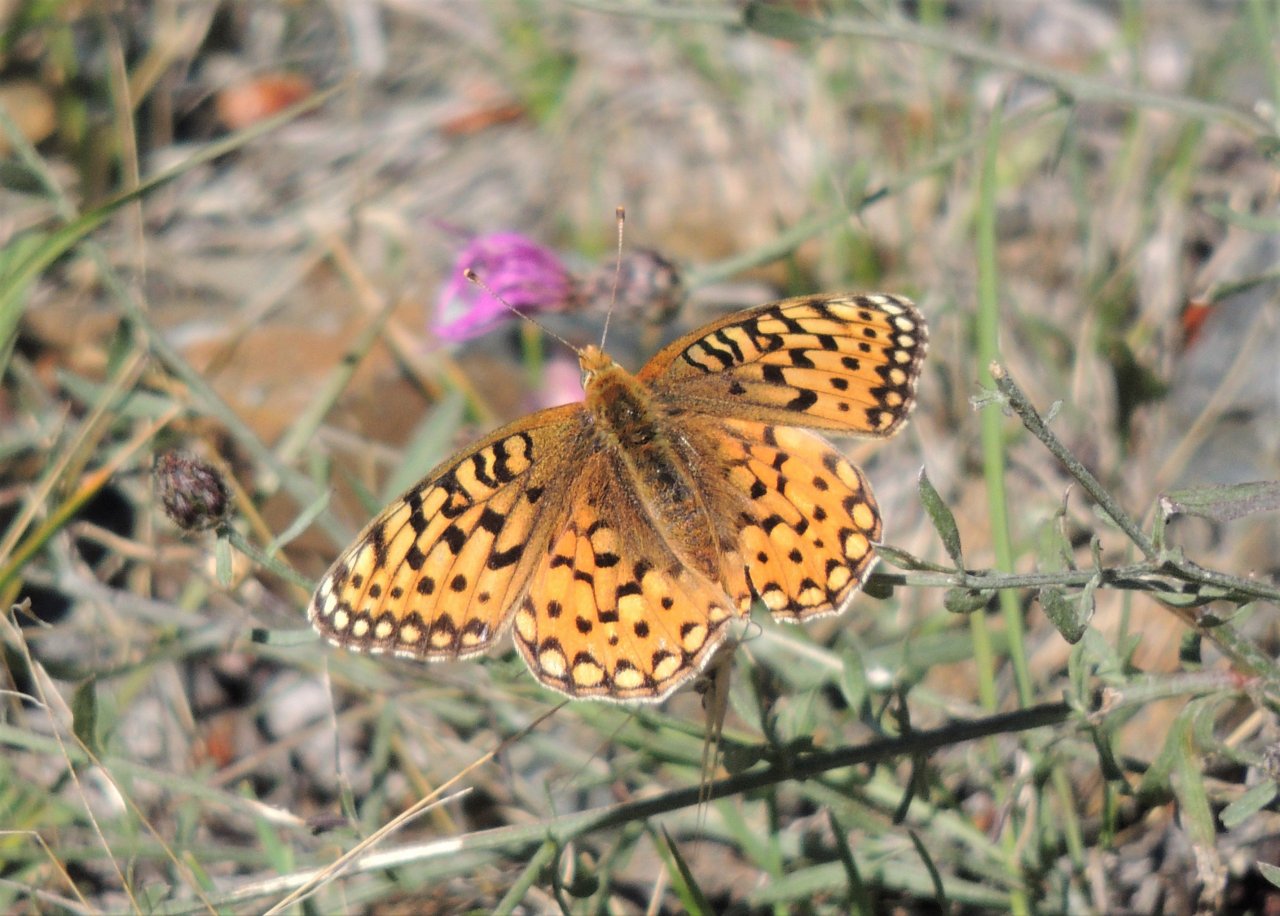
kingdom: Animalia
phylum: Arthropoda
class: Insecta
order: Lepidoptera
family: Nymphalidae
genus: Speyeria
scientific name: Speyeria zerene
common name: Zerene Fritillary
